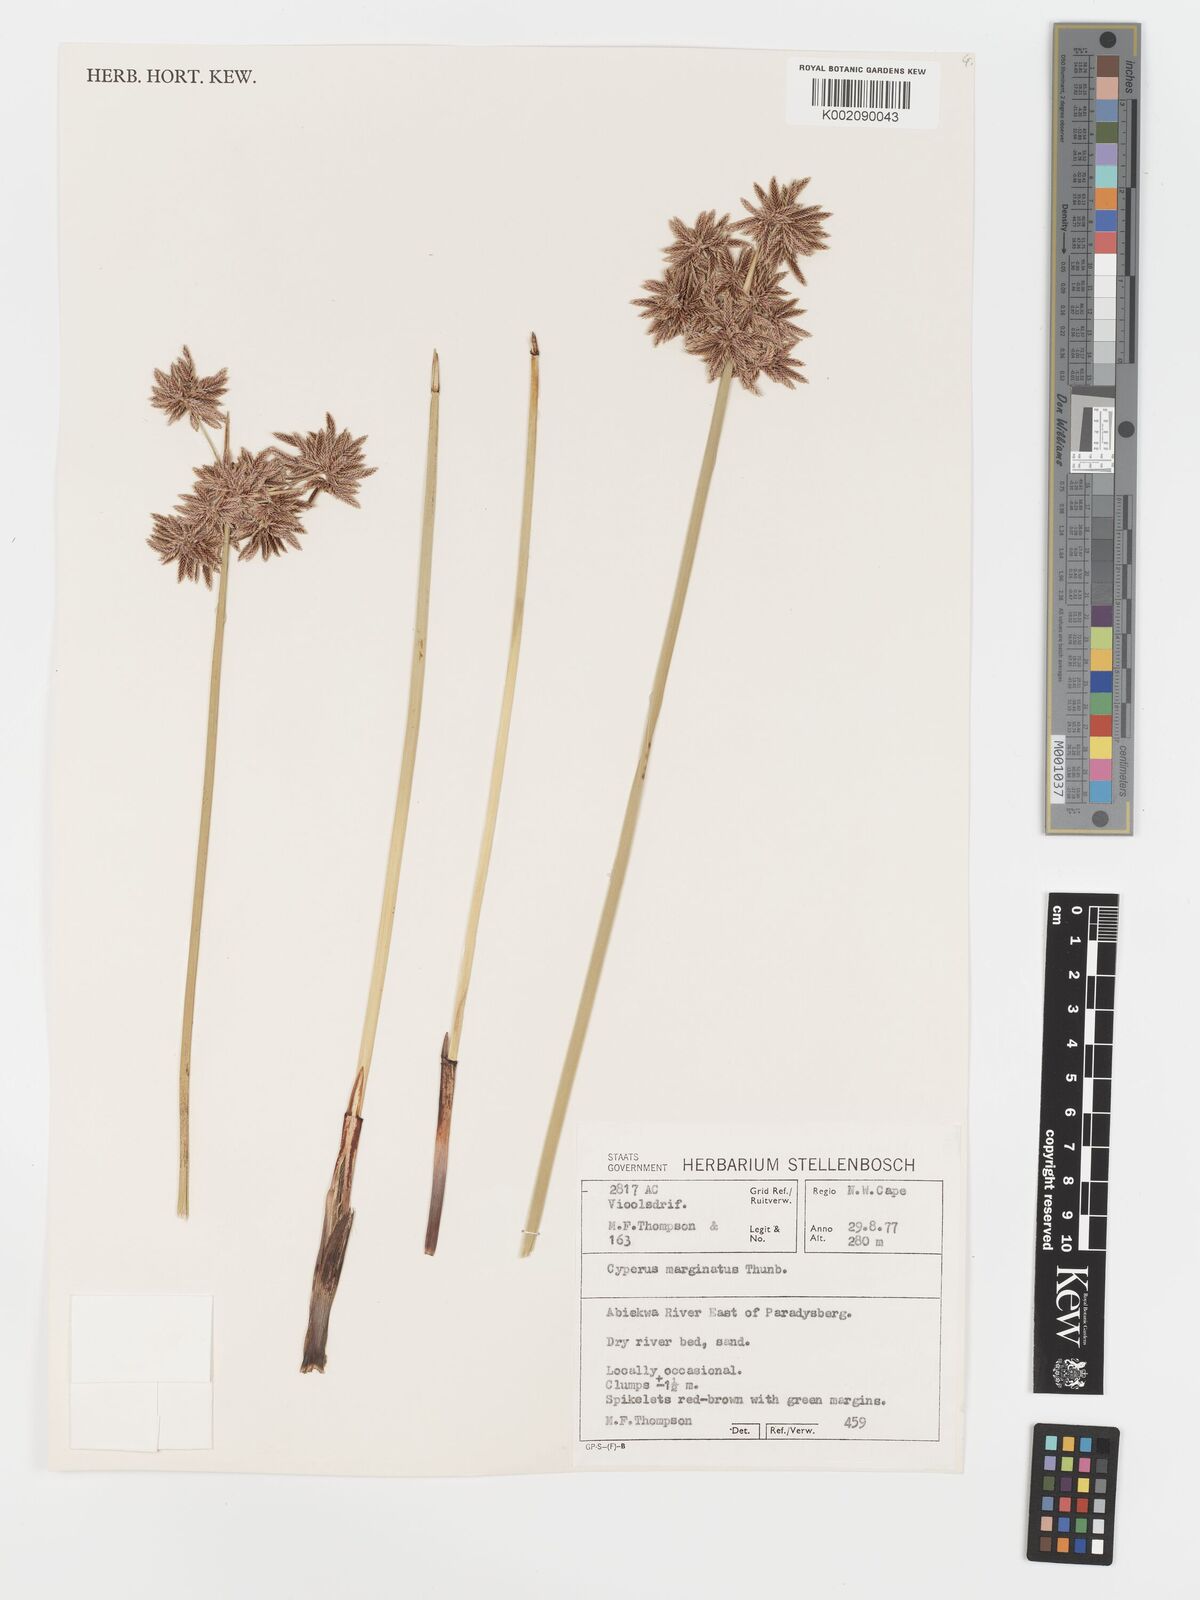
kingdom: Plantae
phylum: Tracheophyta
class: Liliopsida
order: Poales
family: Cyperaceae
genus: Cyperus
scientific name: Cyperus marginatus
